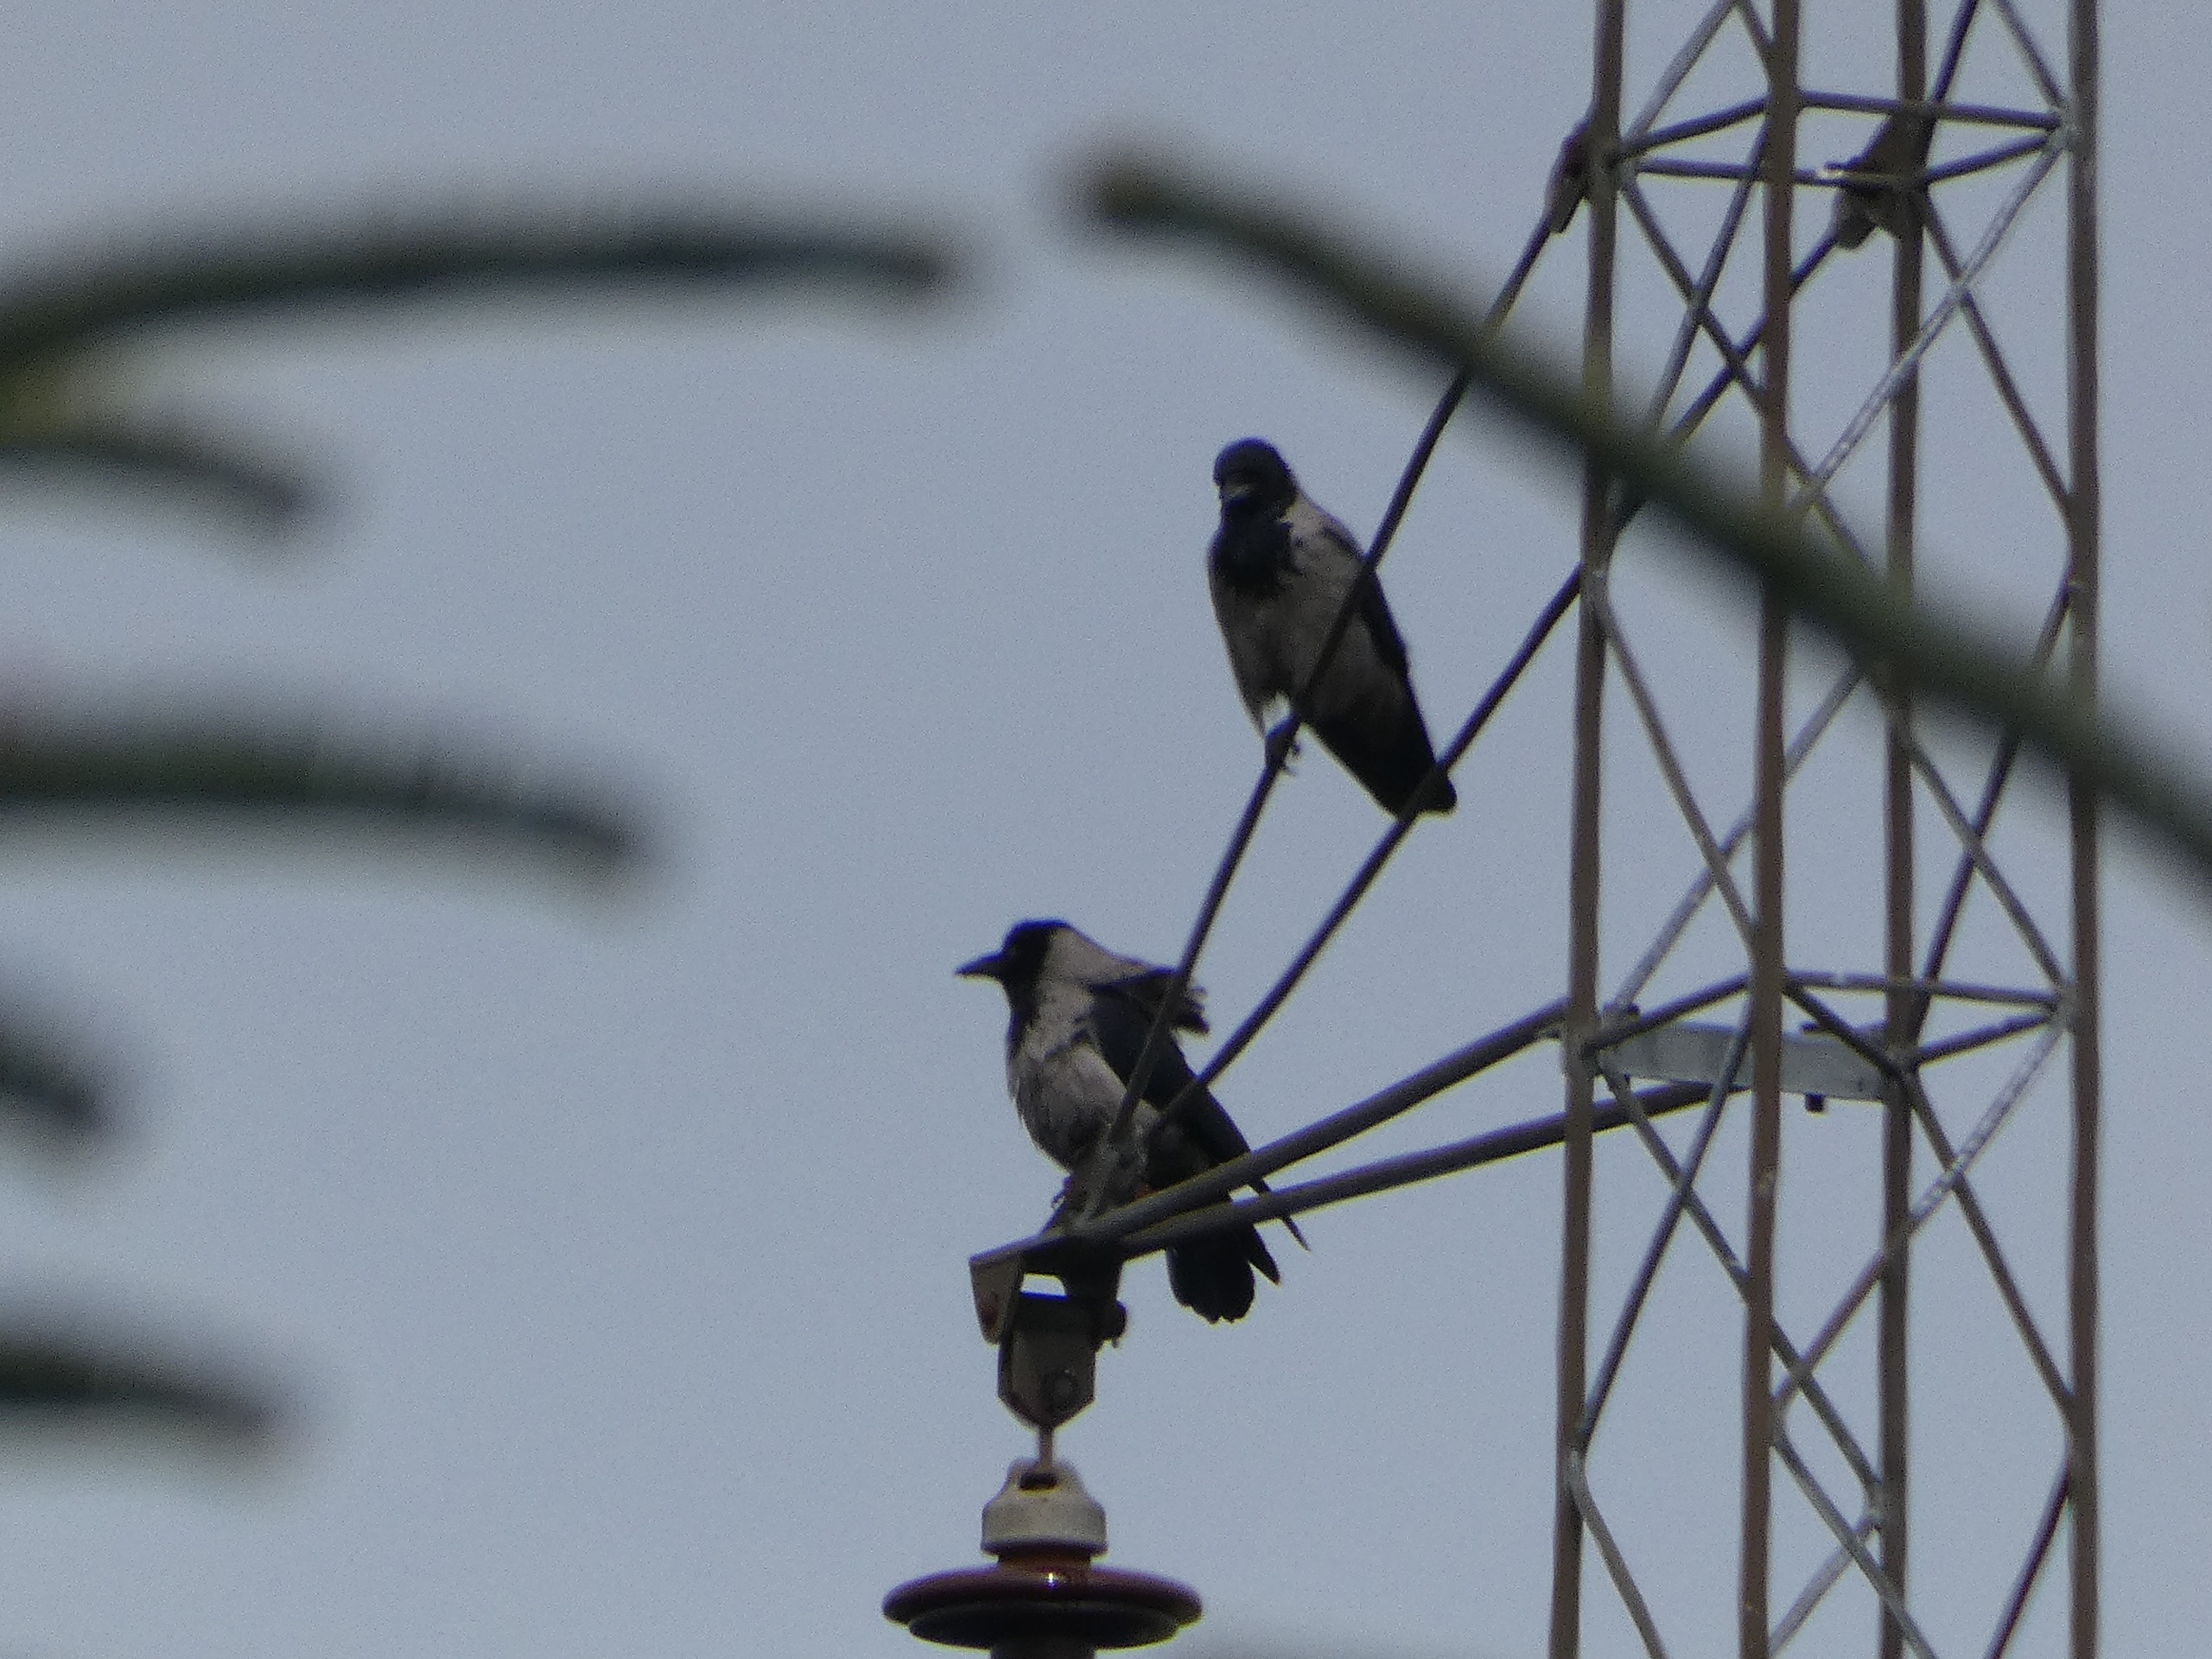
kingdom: Animalia
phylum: Chordata
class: Aves
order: Passeriformes
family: Corvidae
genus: Corvus
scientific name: Corvus cornix
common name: Gråkrage
